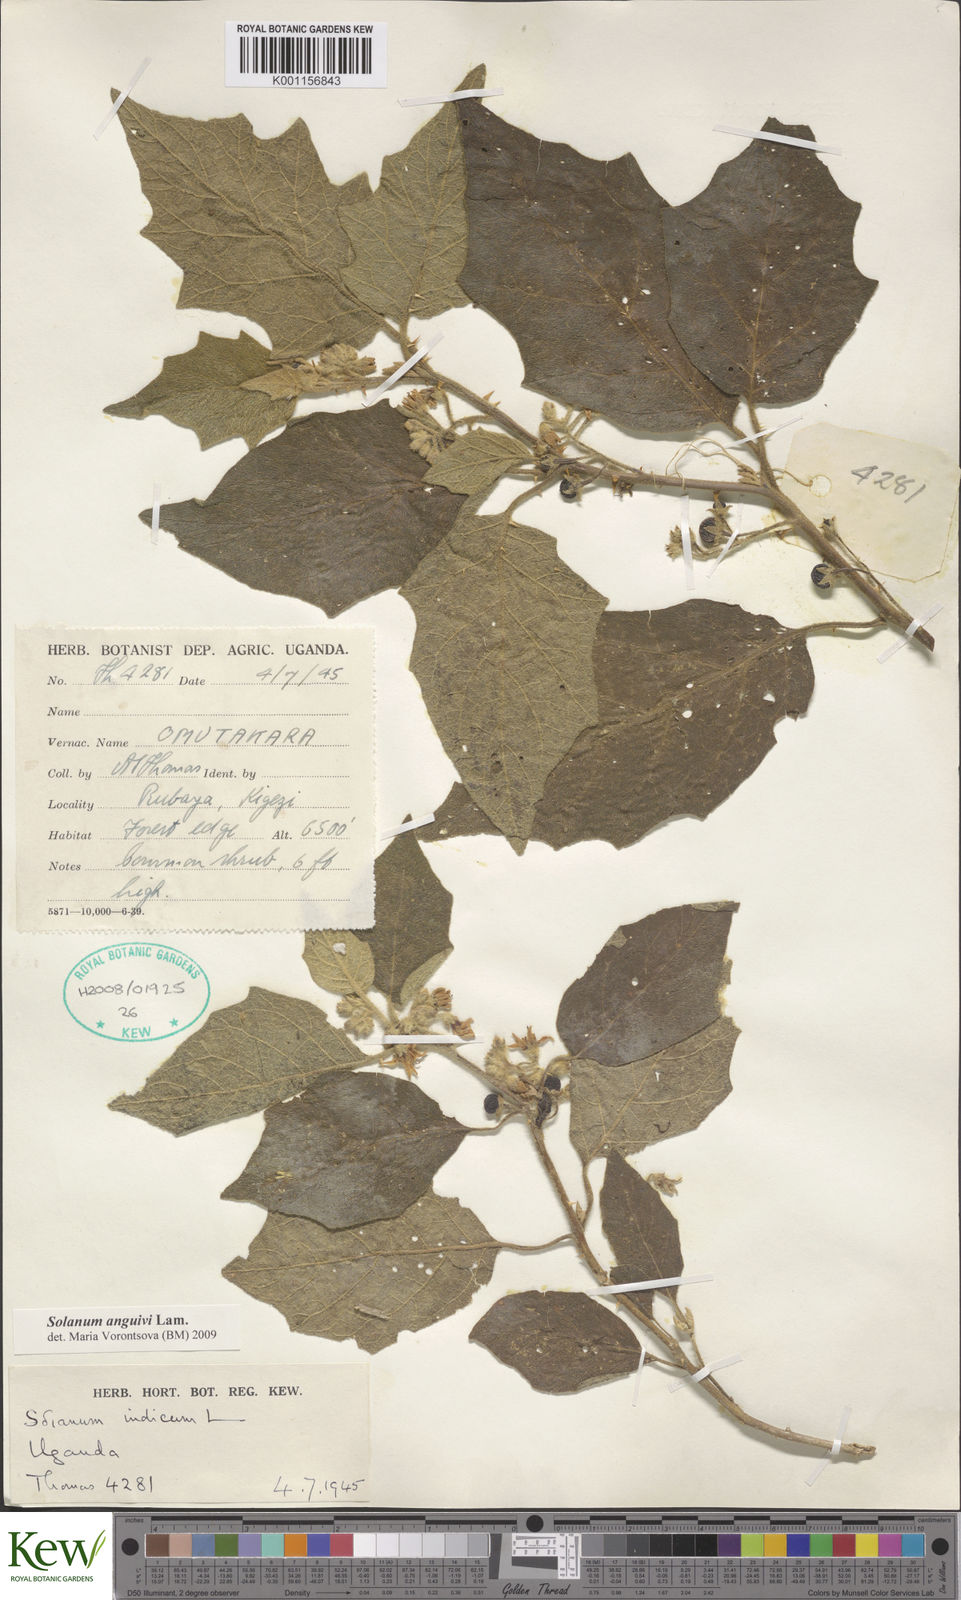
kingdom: Plantae
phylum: Tracheophyta
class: Magnoliopsida
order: Solanales
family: Solanaceae
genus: Solanum
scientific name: Solanum anguivi
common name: Forest bitterberry
